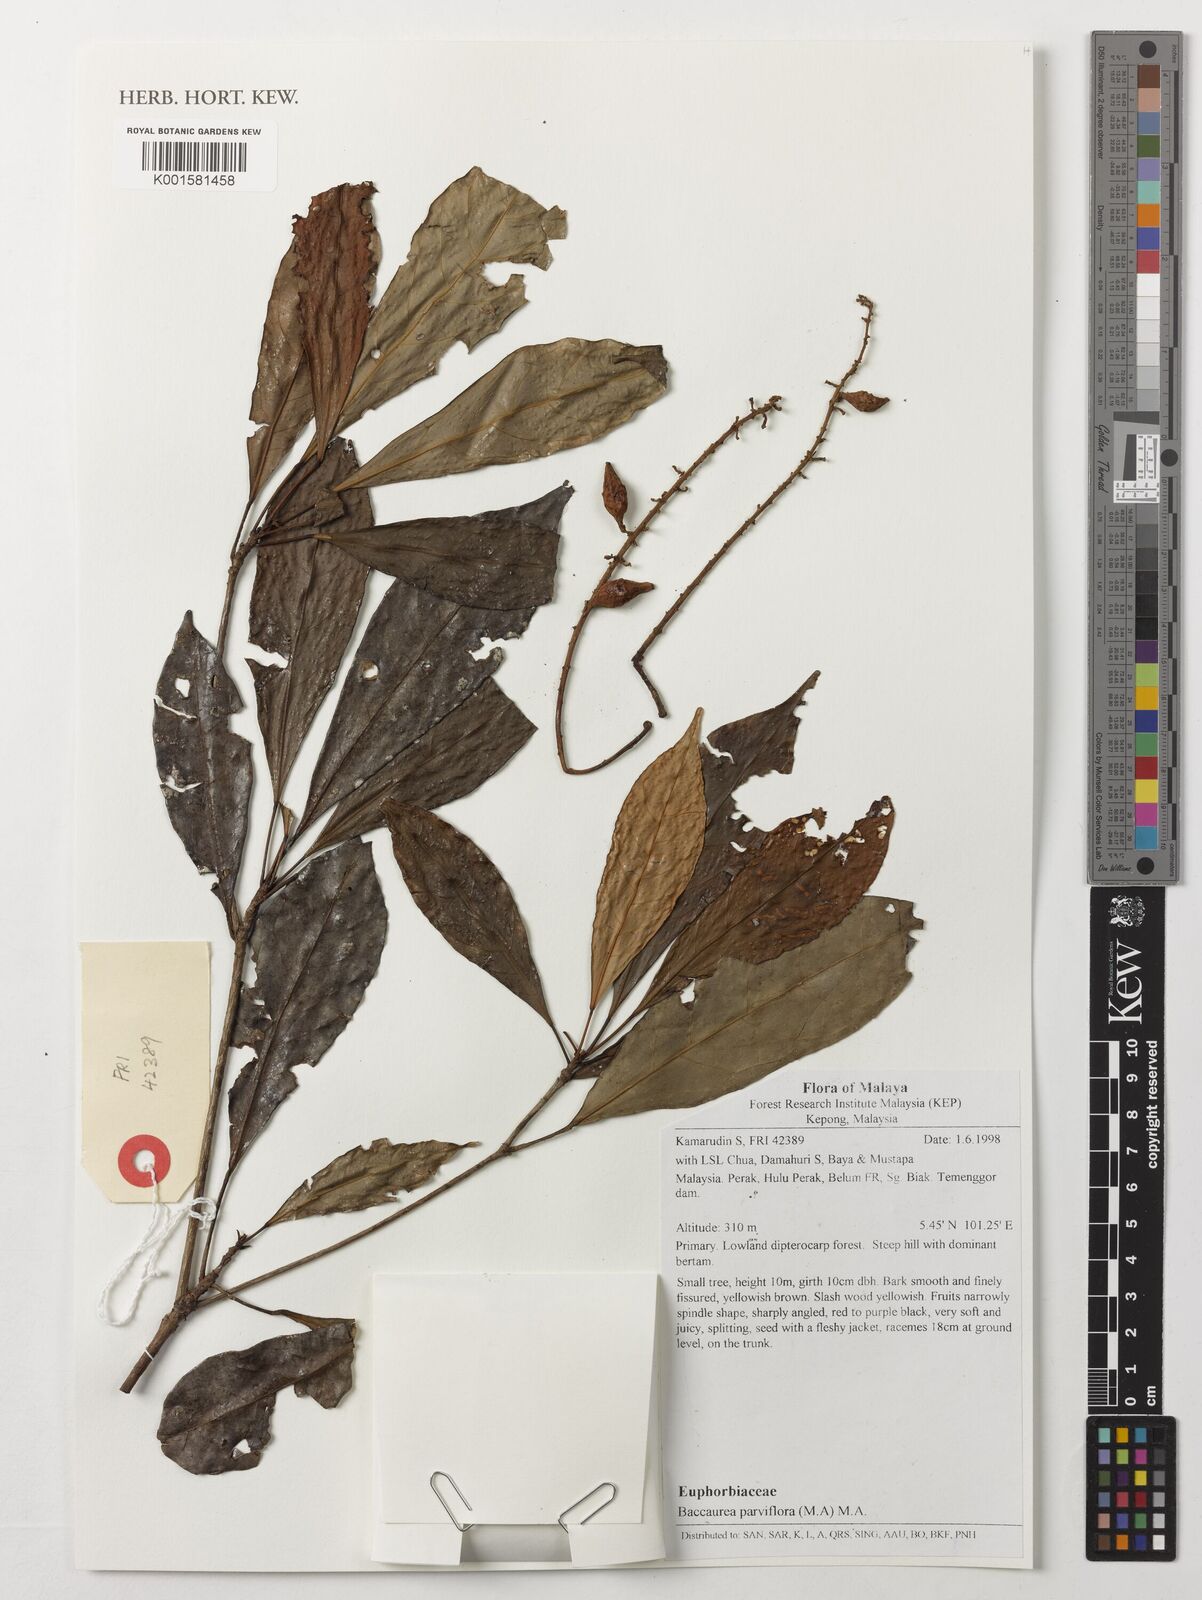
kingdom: Plantae
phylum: Tracheophyta
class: Magnoliopsida
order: Malpighiales
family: Phyllanthaceae
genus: Baccaurea
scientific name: Baccaurea parviflora
